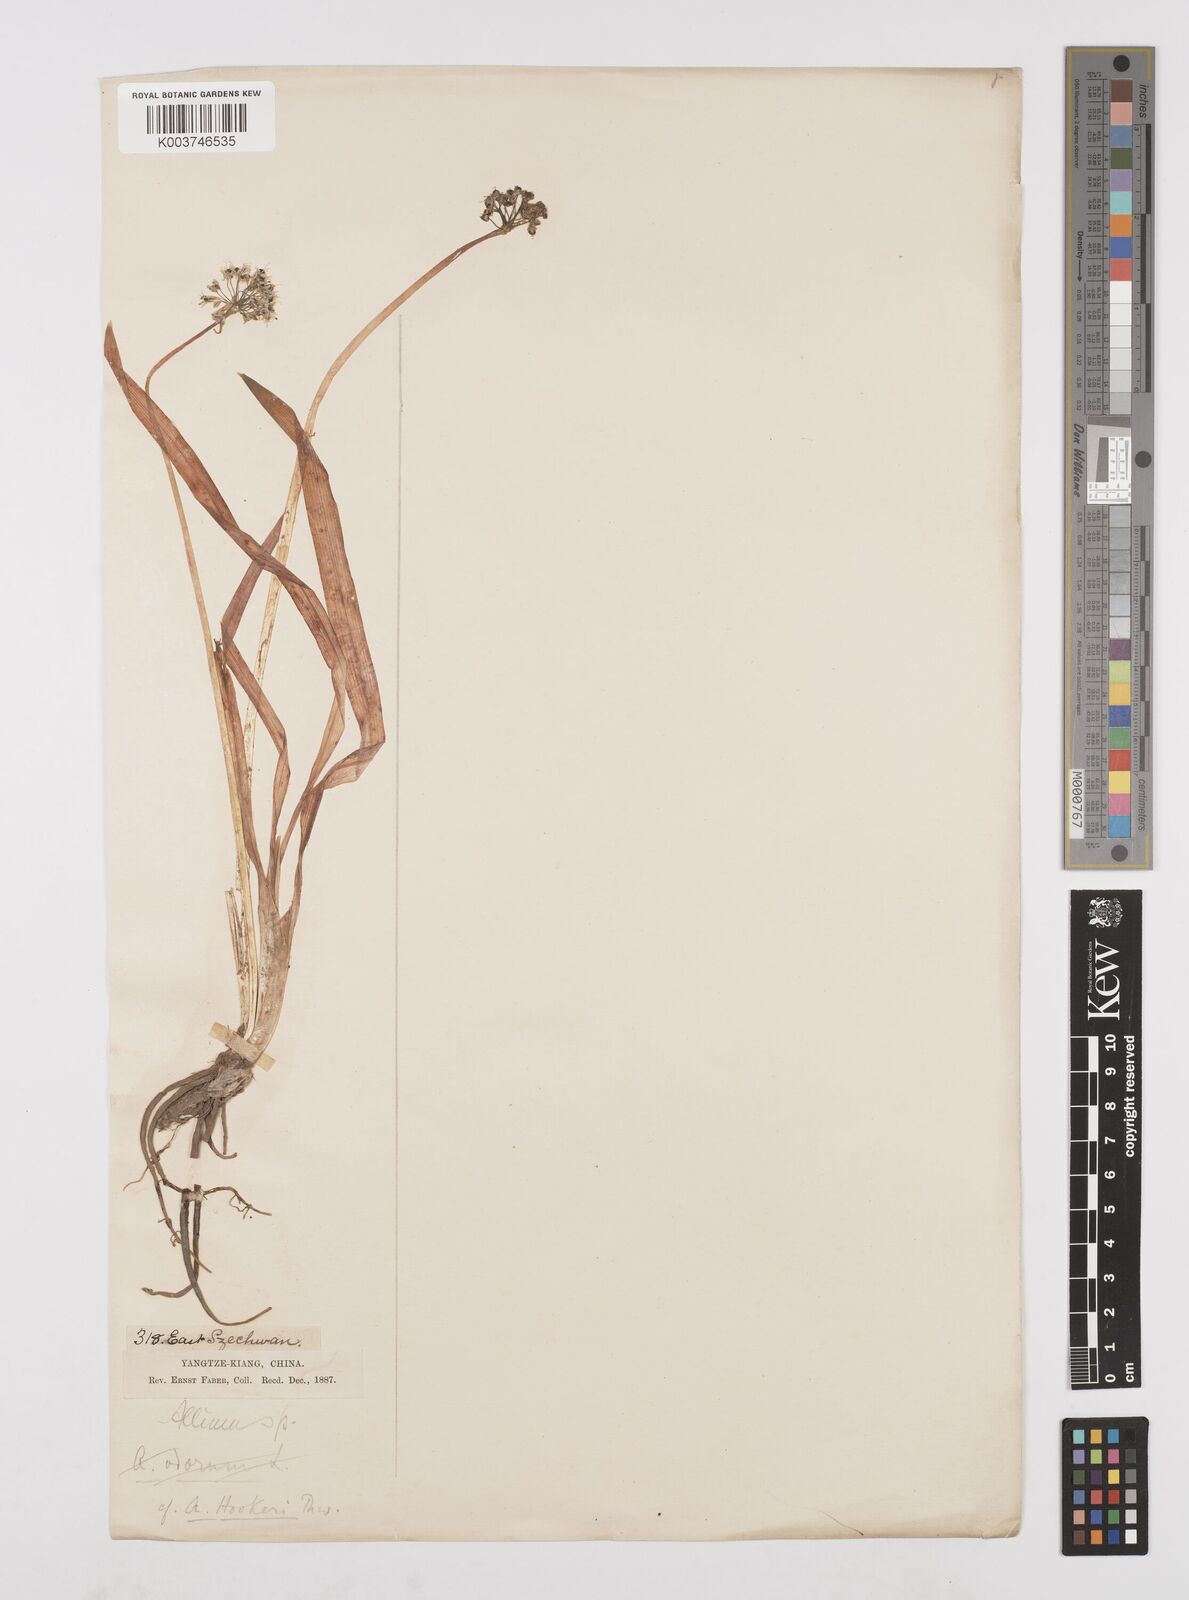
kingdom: Plantae
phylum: Tracheophyta
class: Liliopsida
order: Asparagales
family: Amaryllidaceae
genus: Allium
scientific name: Allium hookeri
